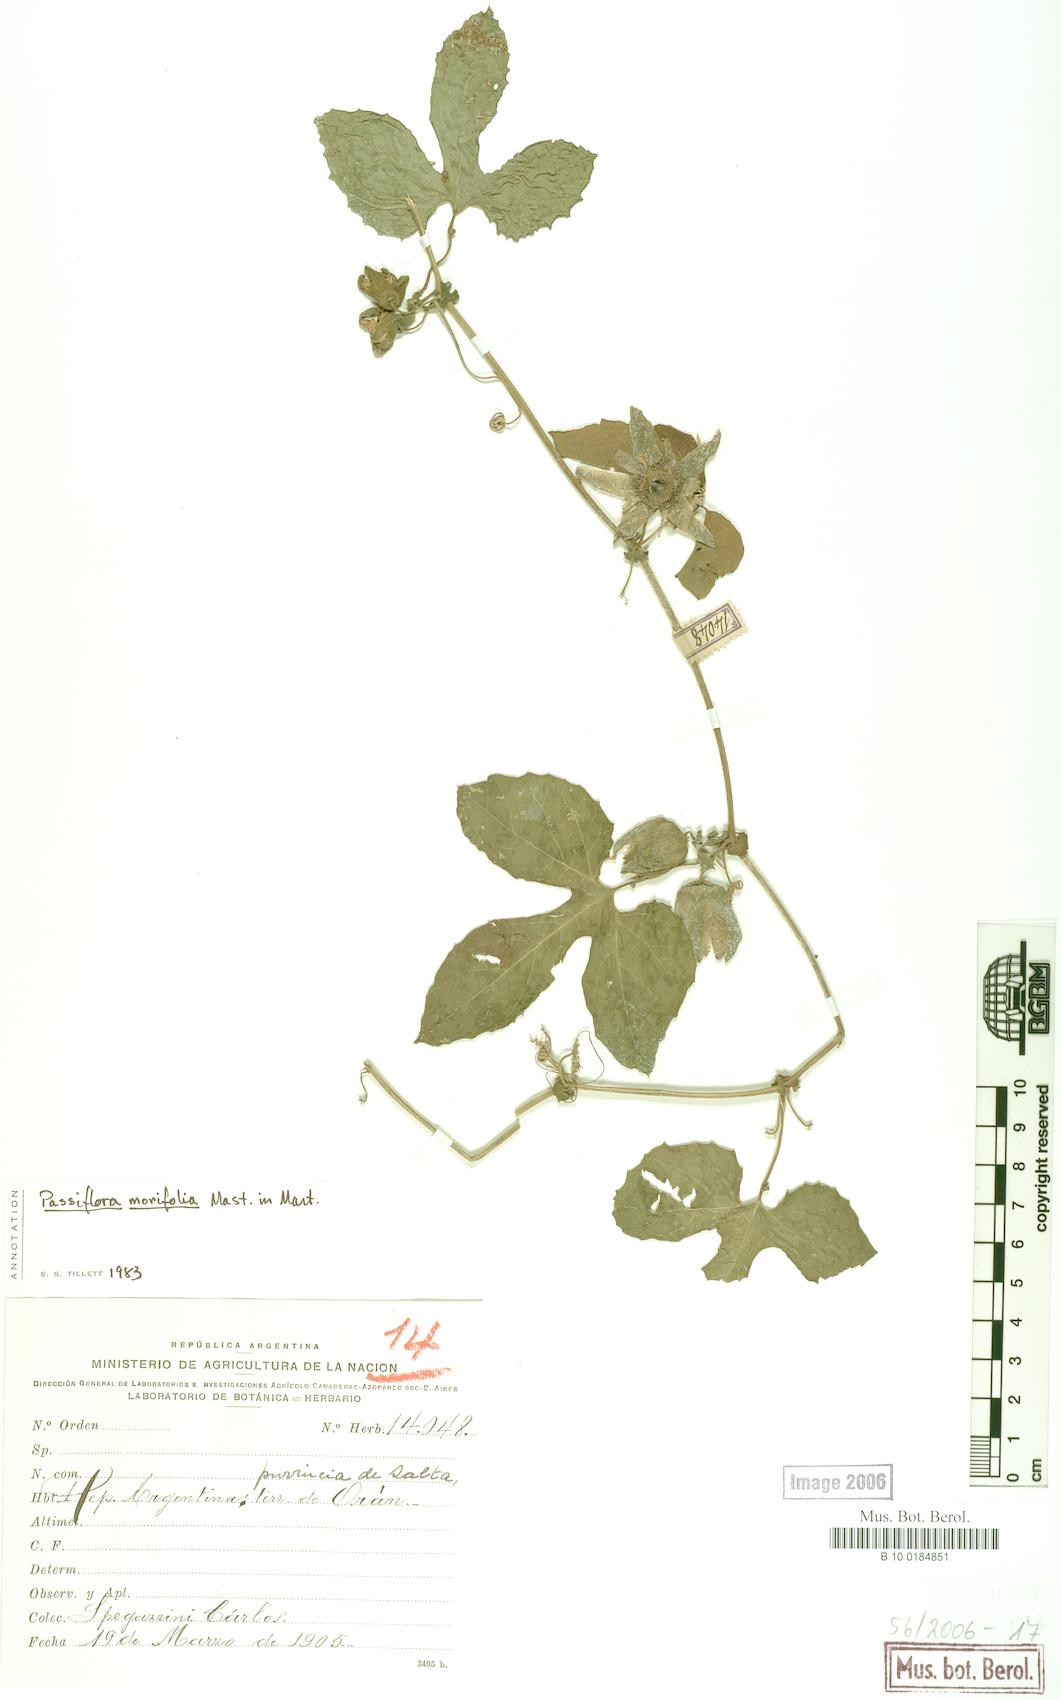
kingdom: Plantae
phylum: Tracheophyta
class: Magnoliopsida
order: Malpighiales
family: Passifloraceae
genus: Passiflora
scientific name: Passiflora morifolia
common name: Woodland passionflower
